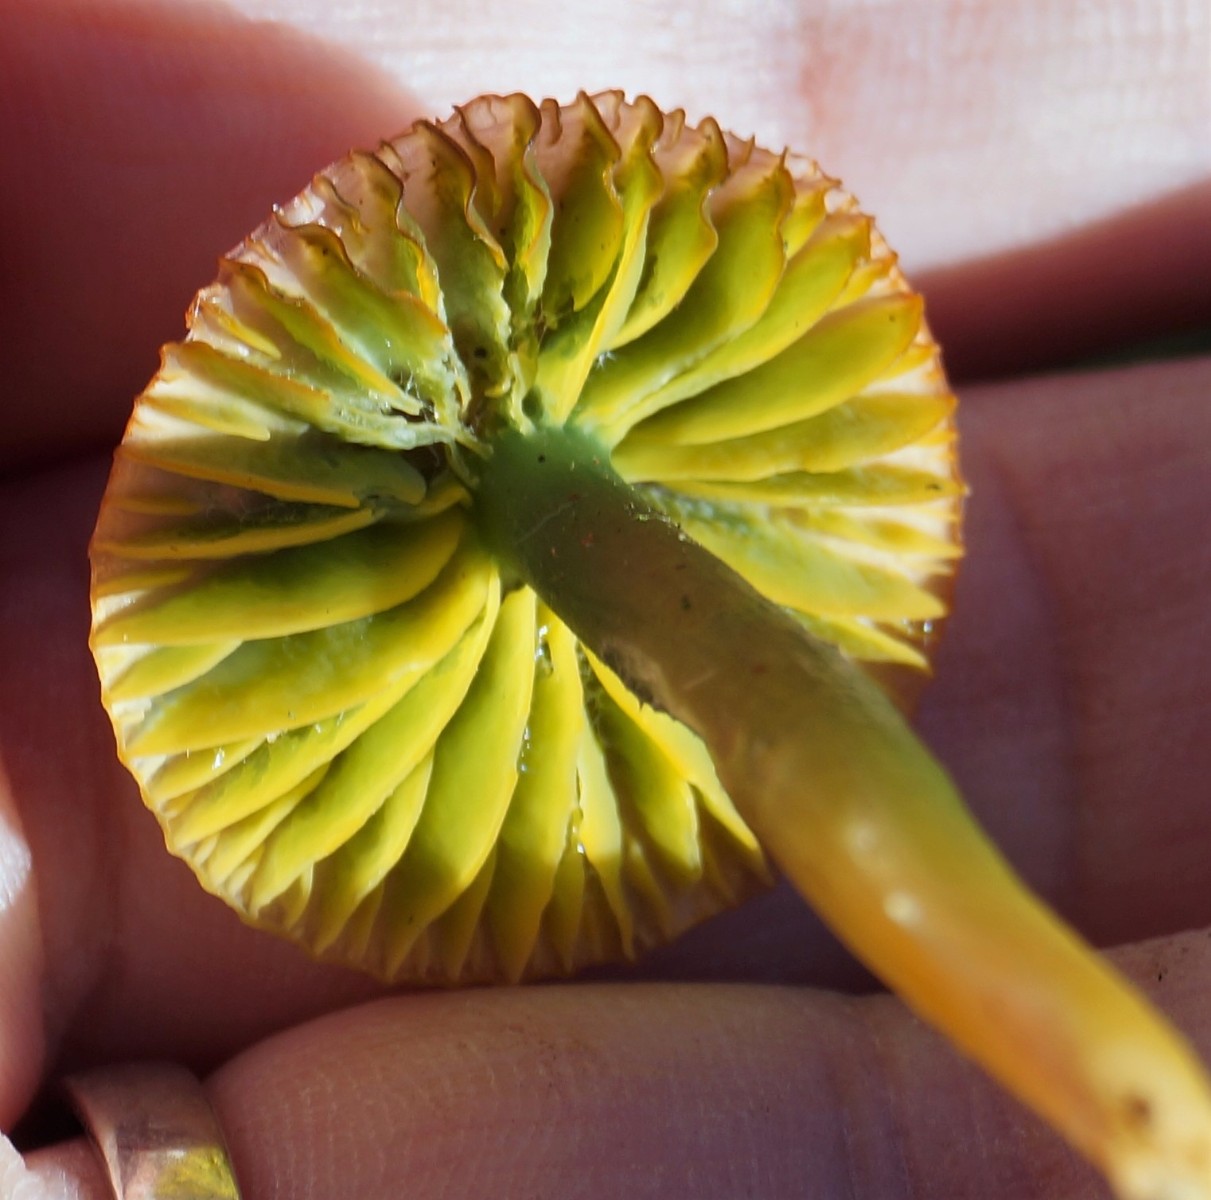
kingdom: Fungi
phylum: Basidiomycota
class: Agaricomycetes
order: Agaricales
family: Hygrophoraceae
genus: Gliophorus
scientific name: Gliophorus psittacinus
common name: papegøje-vokshat
